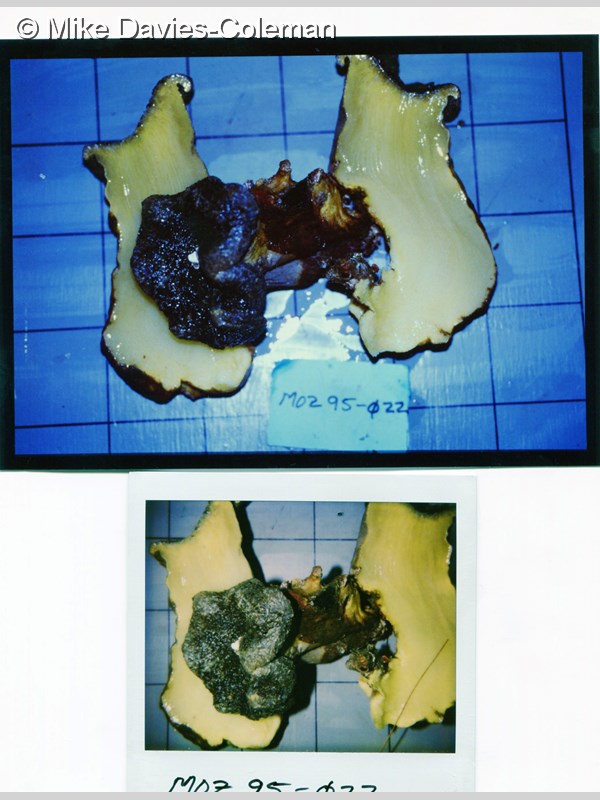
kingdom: Animalia
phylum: Cnidaria
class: Anthozoa
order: Malacalcyonacea
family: Sarcophytidae
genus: Sarcophyton
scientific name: Sarcophyton
